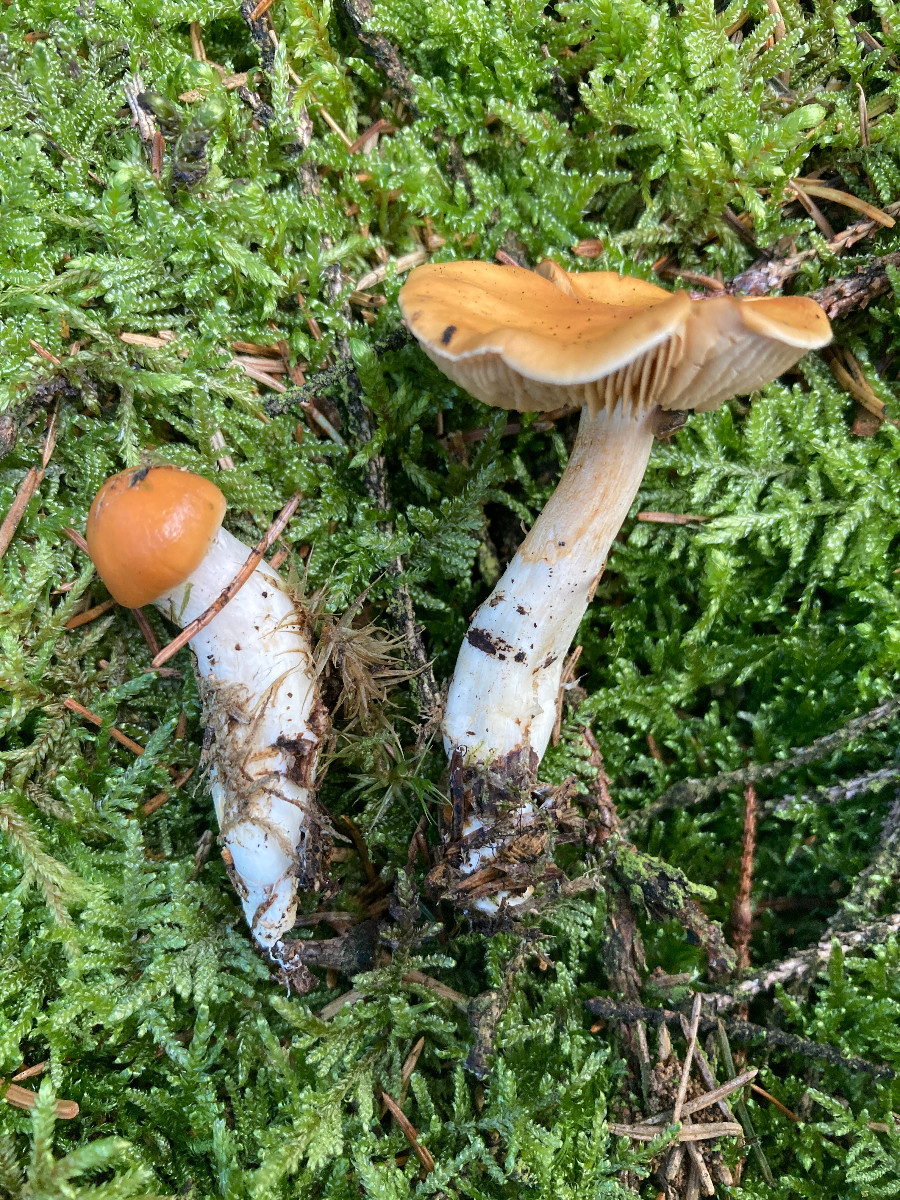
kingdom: Fungi
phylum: Basidiomycota
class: Agaricomycetes
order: Agaricales
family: Cortinariaceae
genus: Cortinarius
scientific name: Cortinarius
